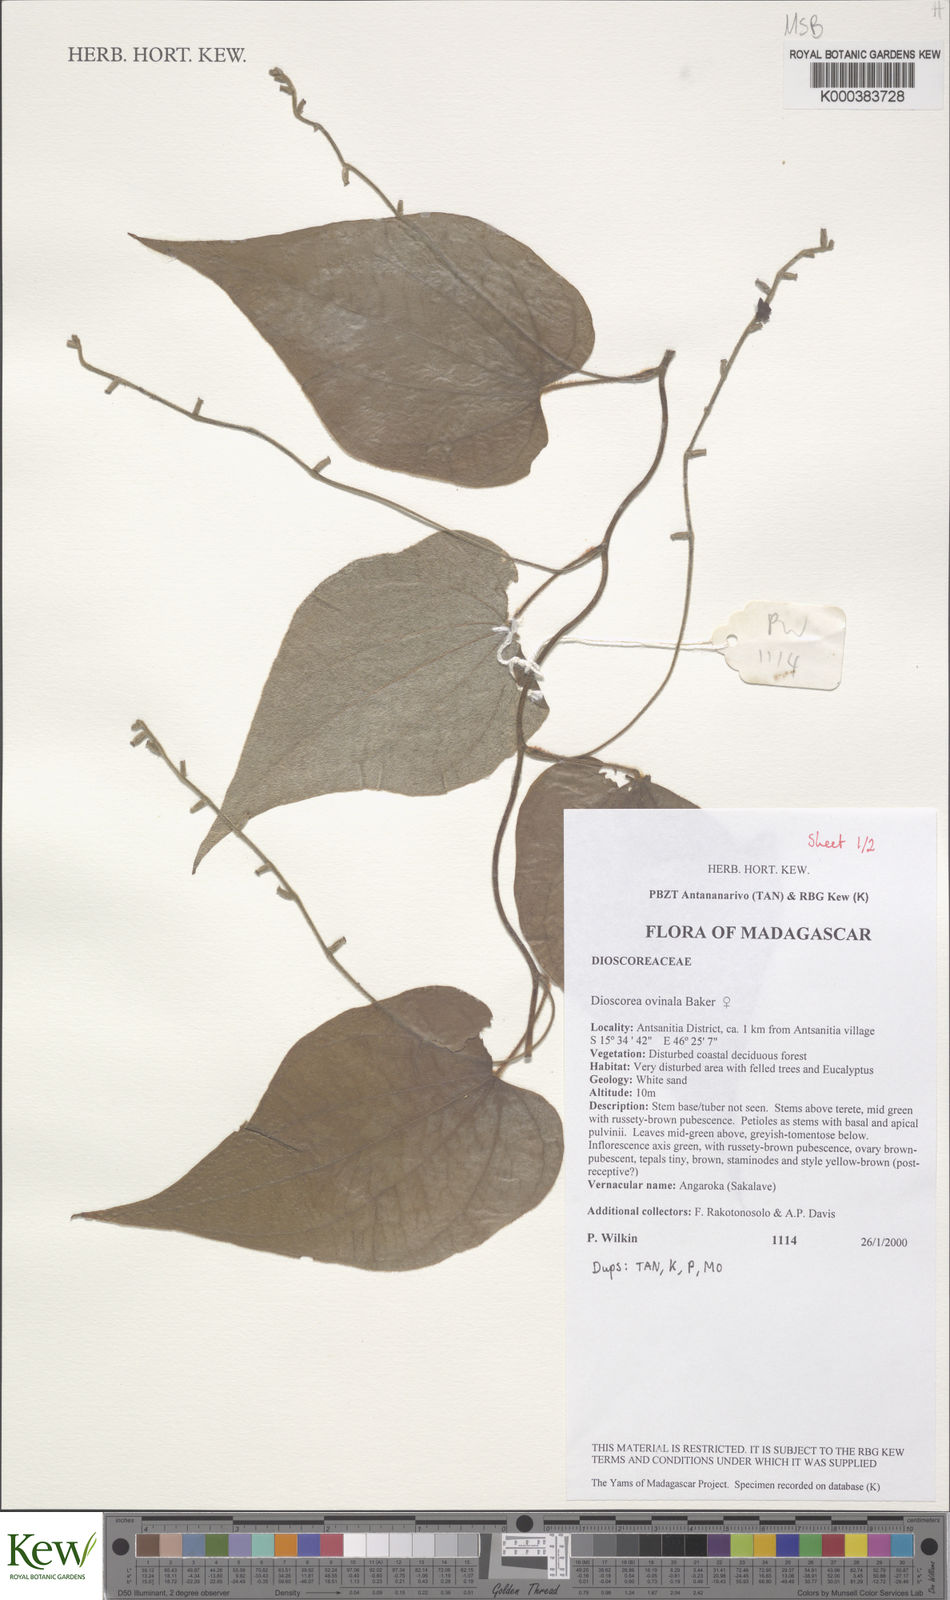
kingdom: Plantae
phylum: Tracheophyta
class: Liliopsida
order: Dioscoreales
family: Dioscoreaceae
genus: Dioscorea
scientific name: Dioscorea ovinala
